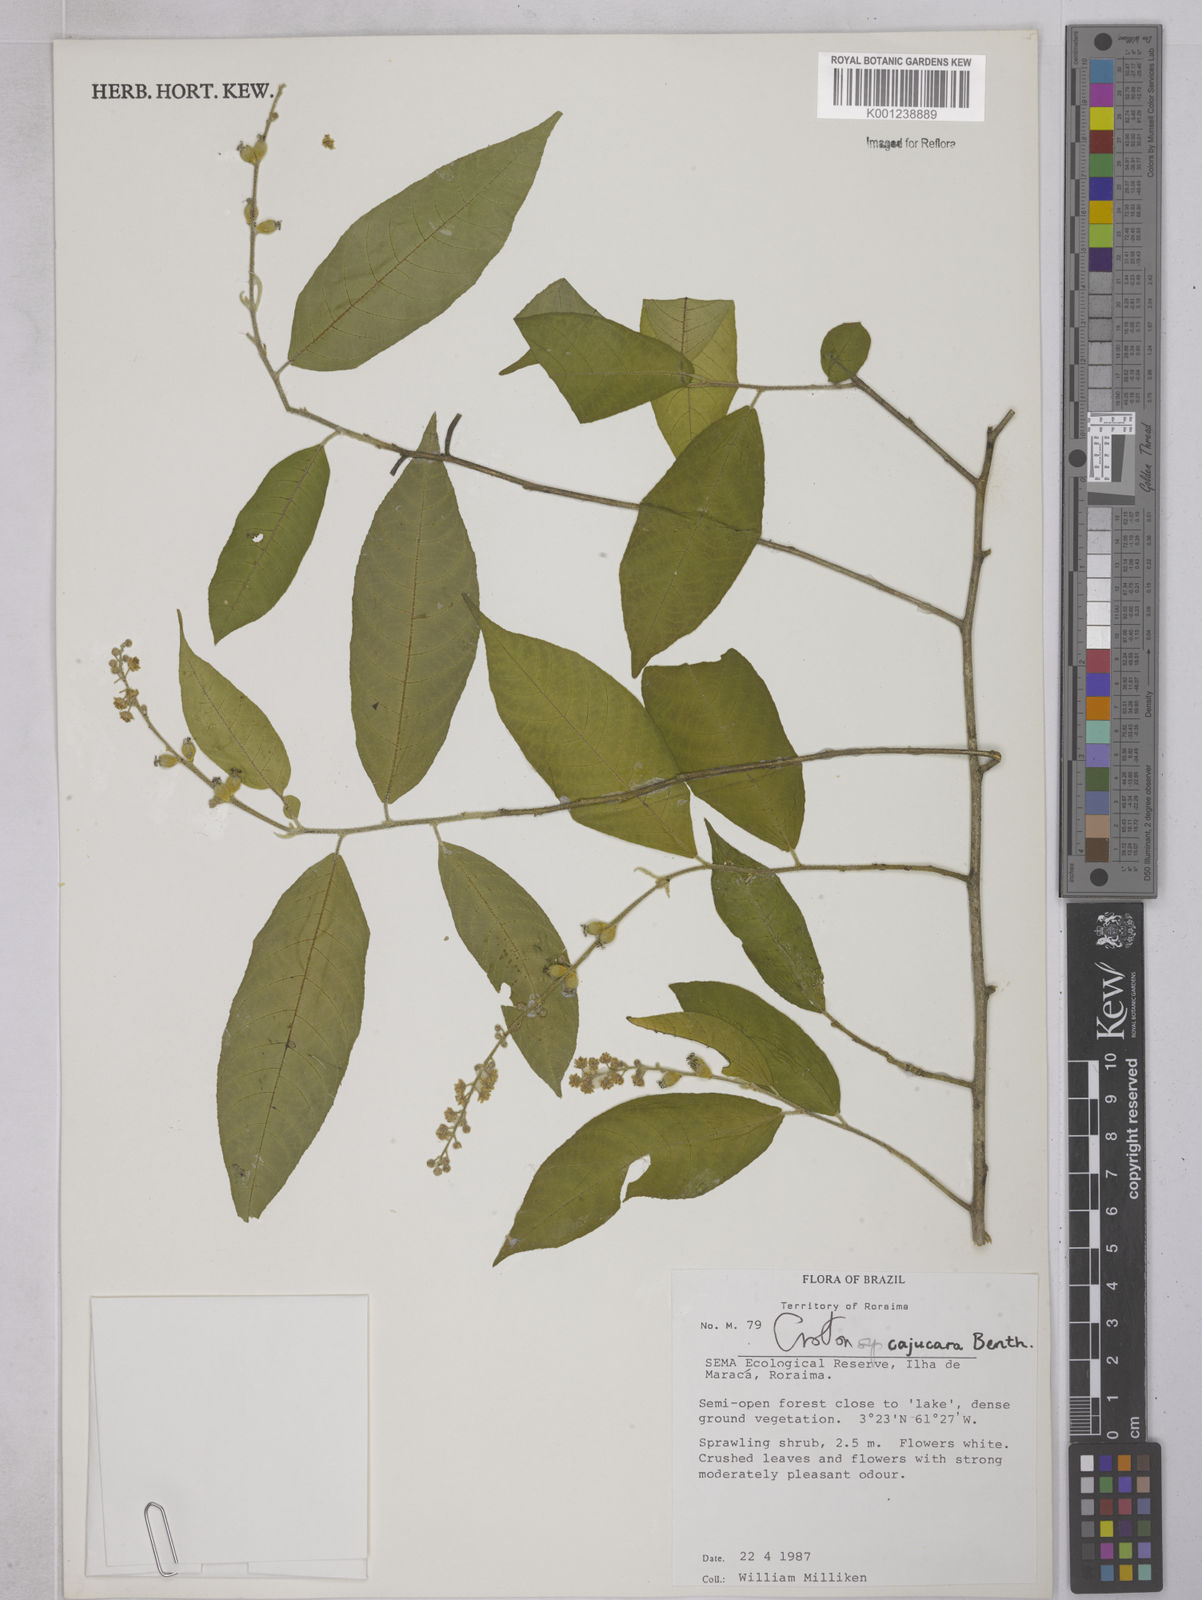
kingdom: Plantae
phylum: Tracheophyta
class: Magnoliopsida
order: Malpighiales
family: Euphorbiaceae
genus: Croton
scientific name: Croton cajucara
